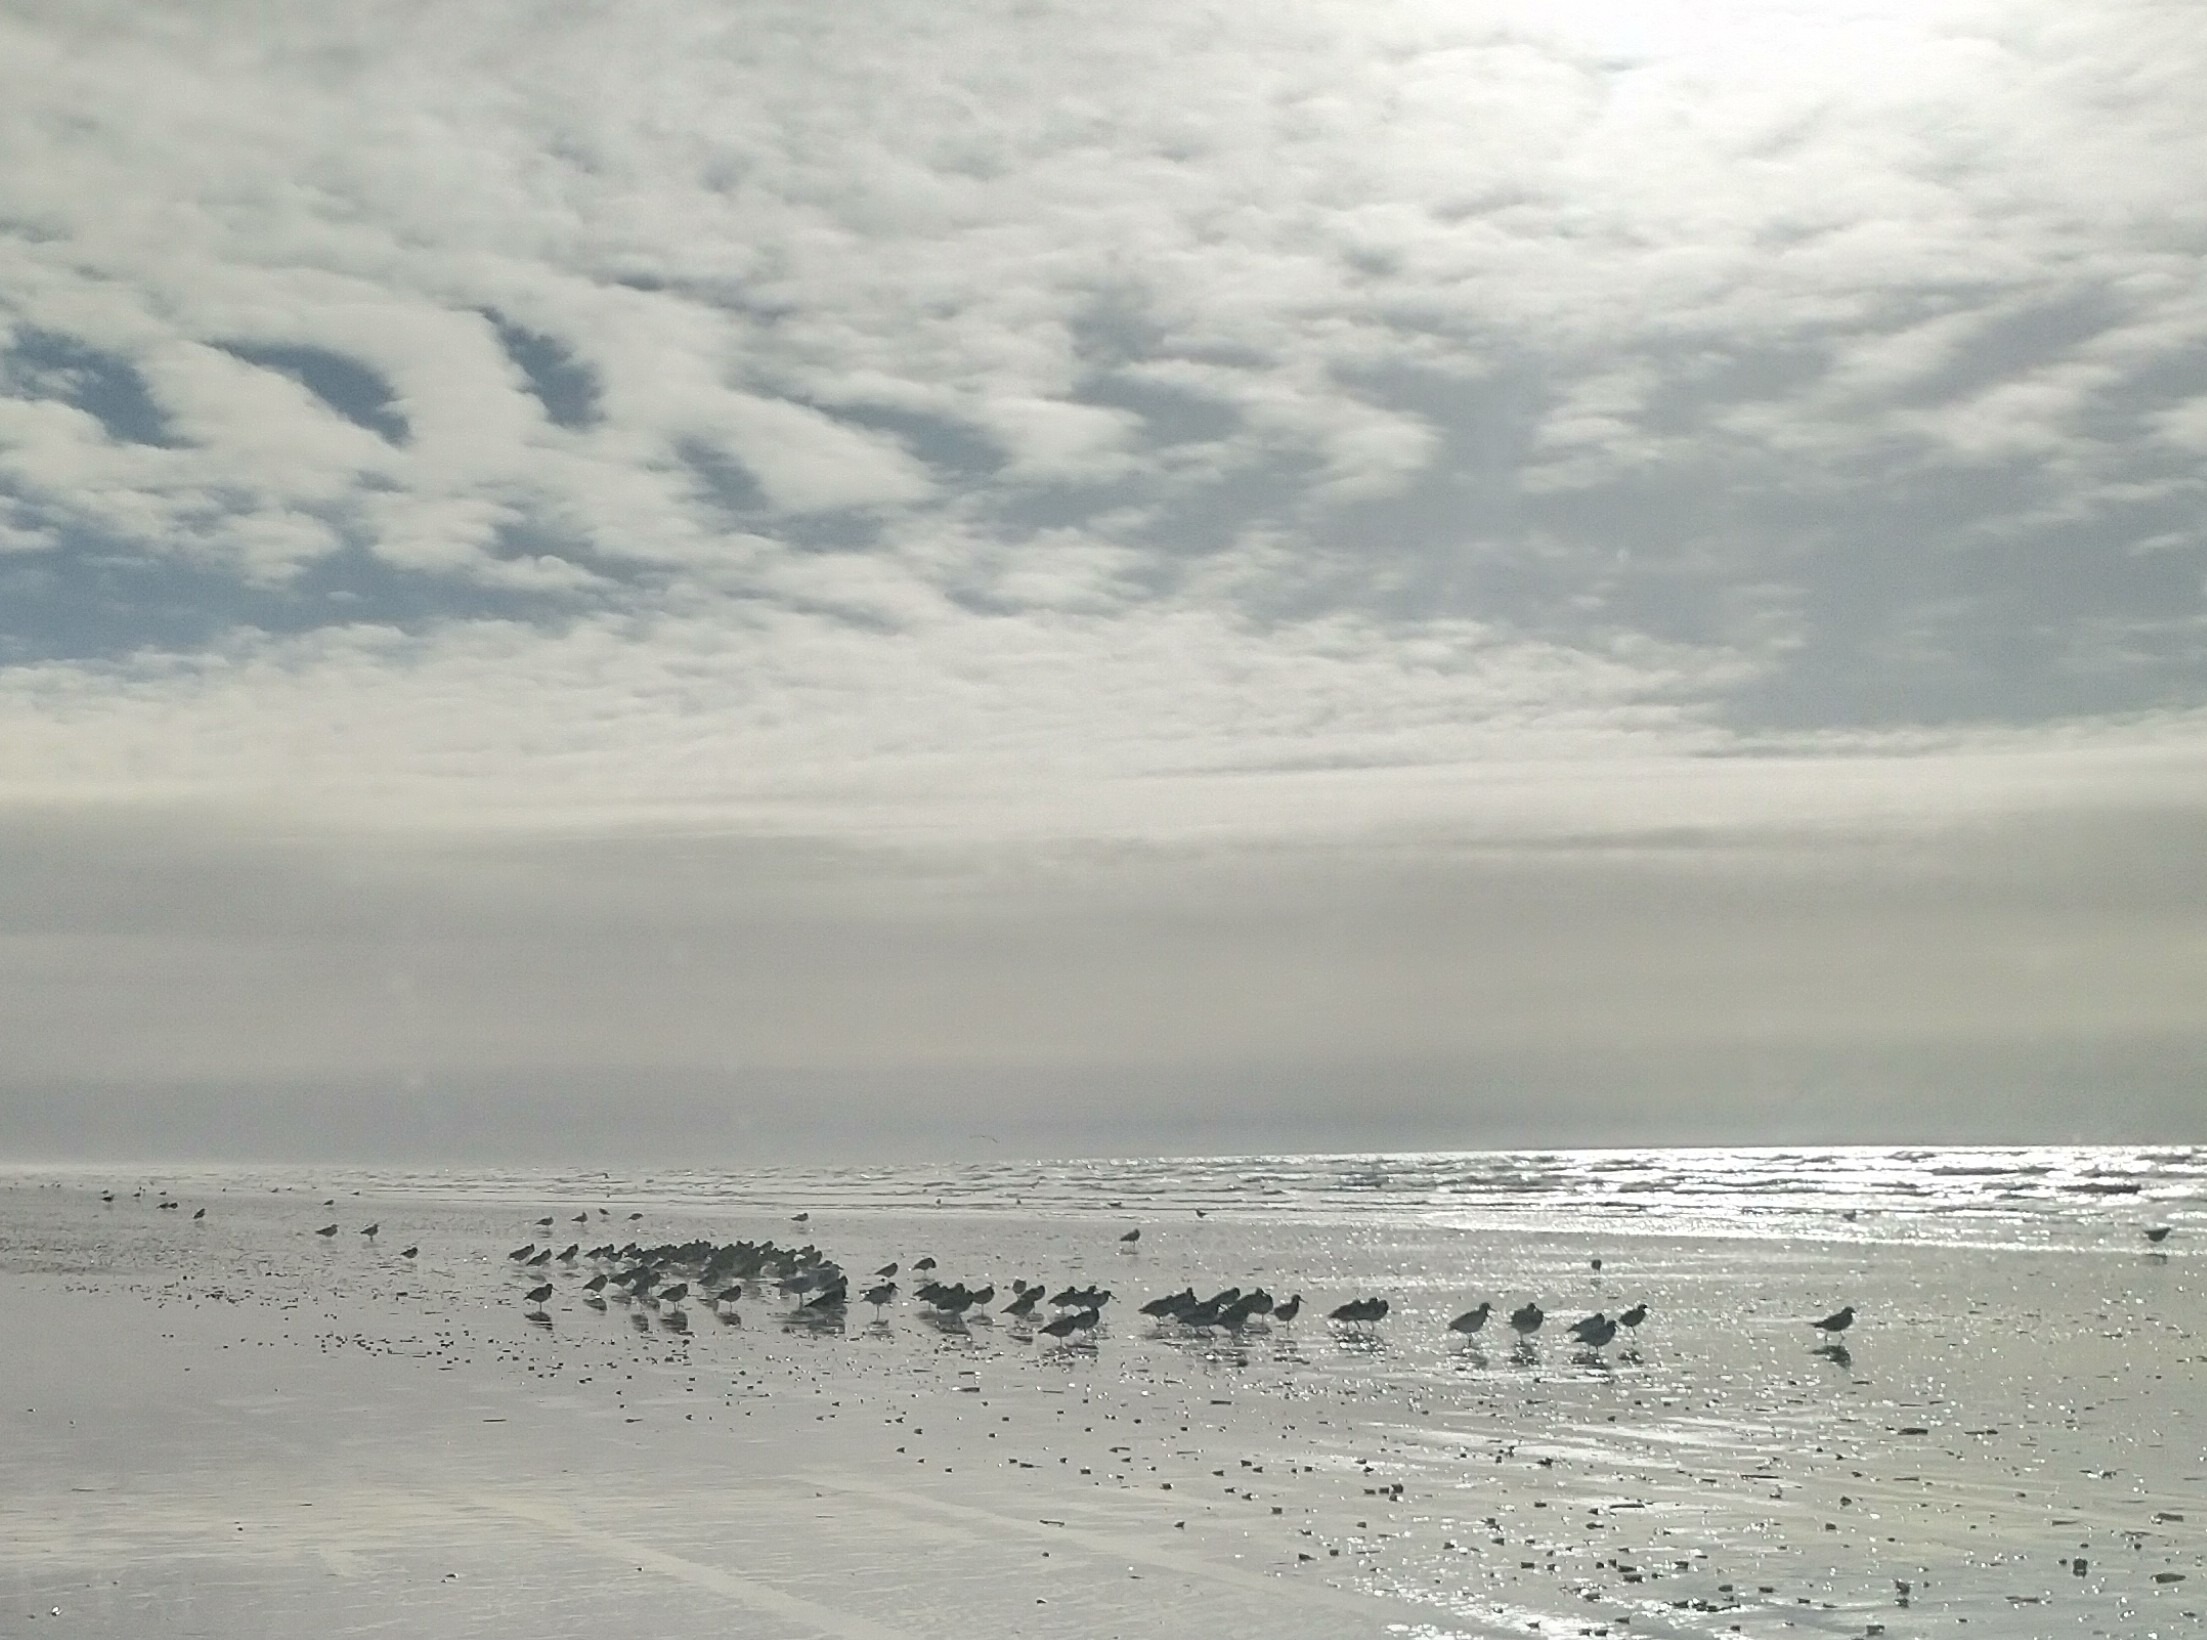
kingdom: Animalia
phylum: Chordata
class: Aves
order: Charadriiformes
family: Haematopodidae
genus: Haematopus
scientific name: Haematopus ostralegus
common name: Strandskade
